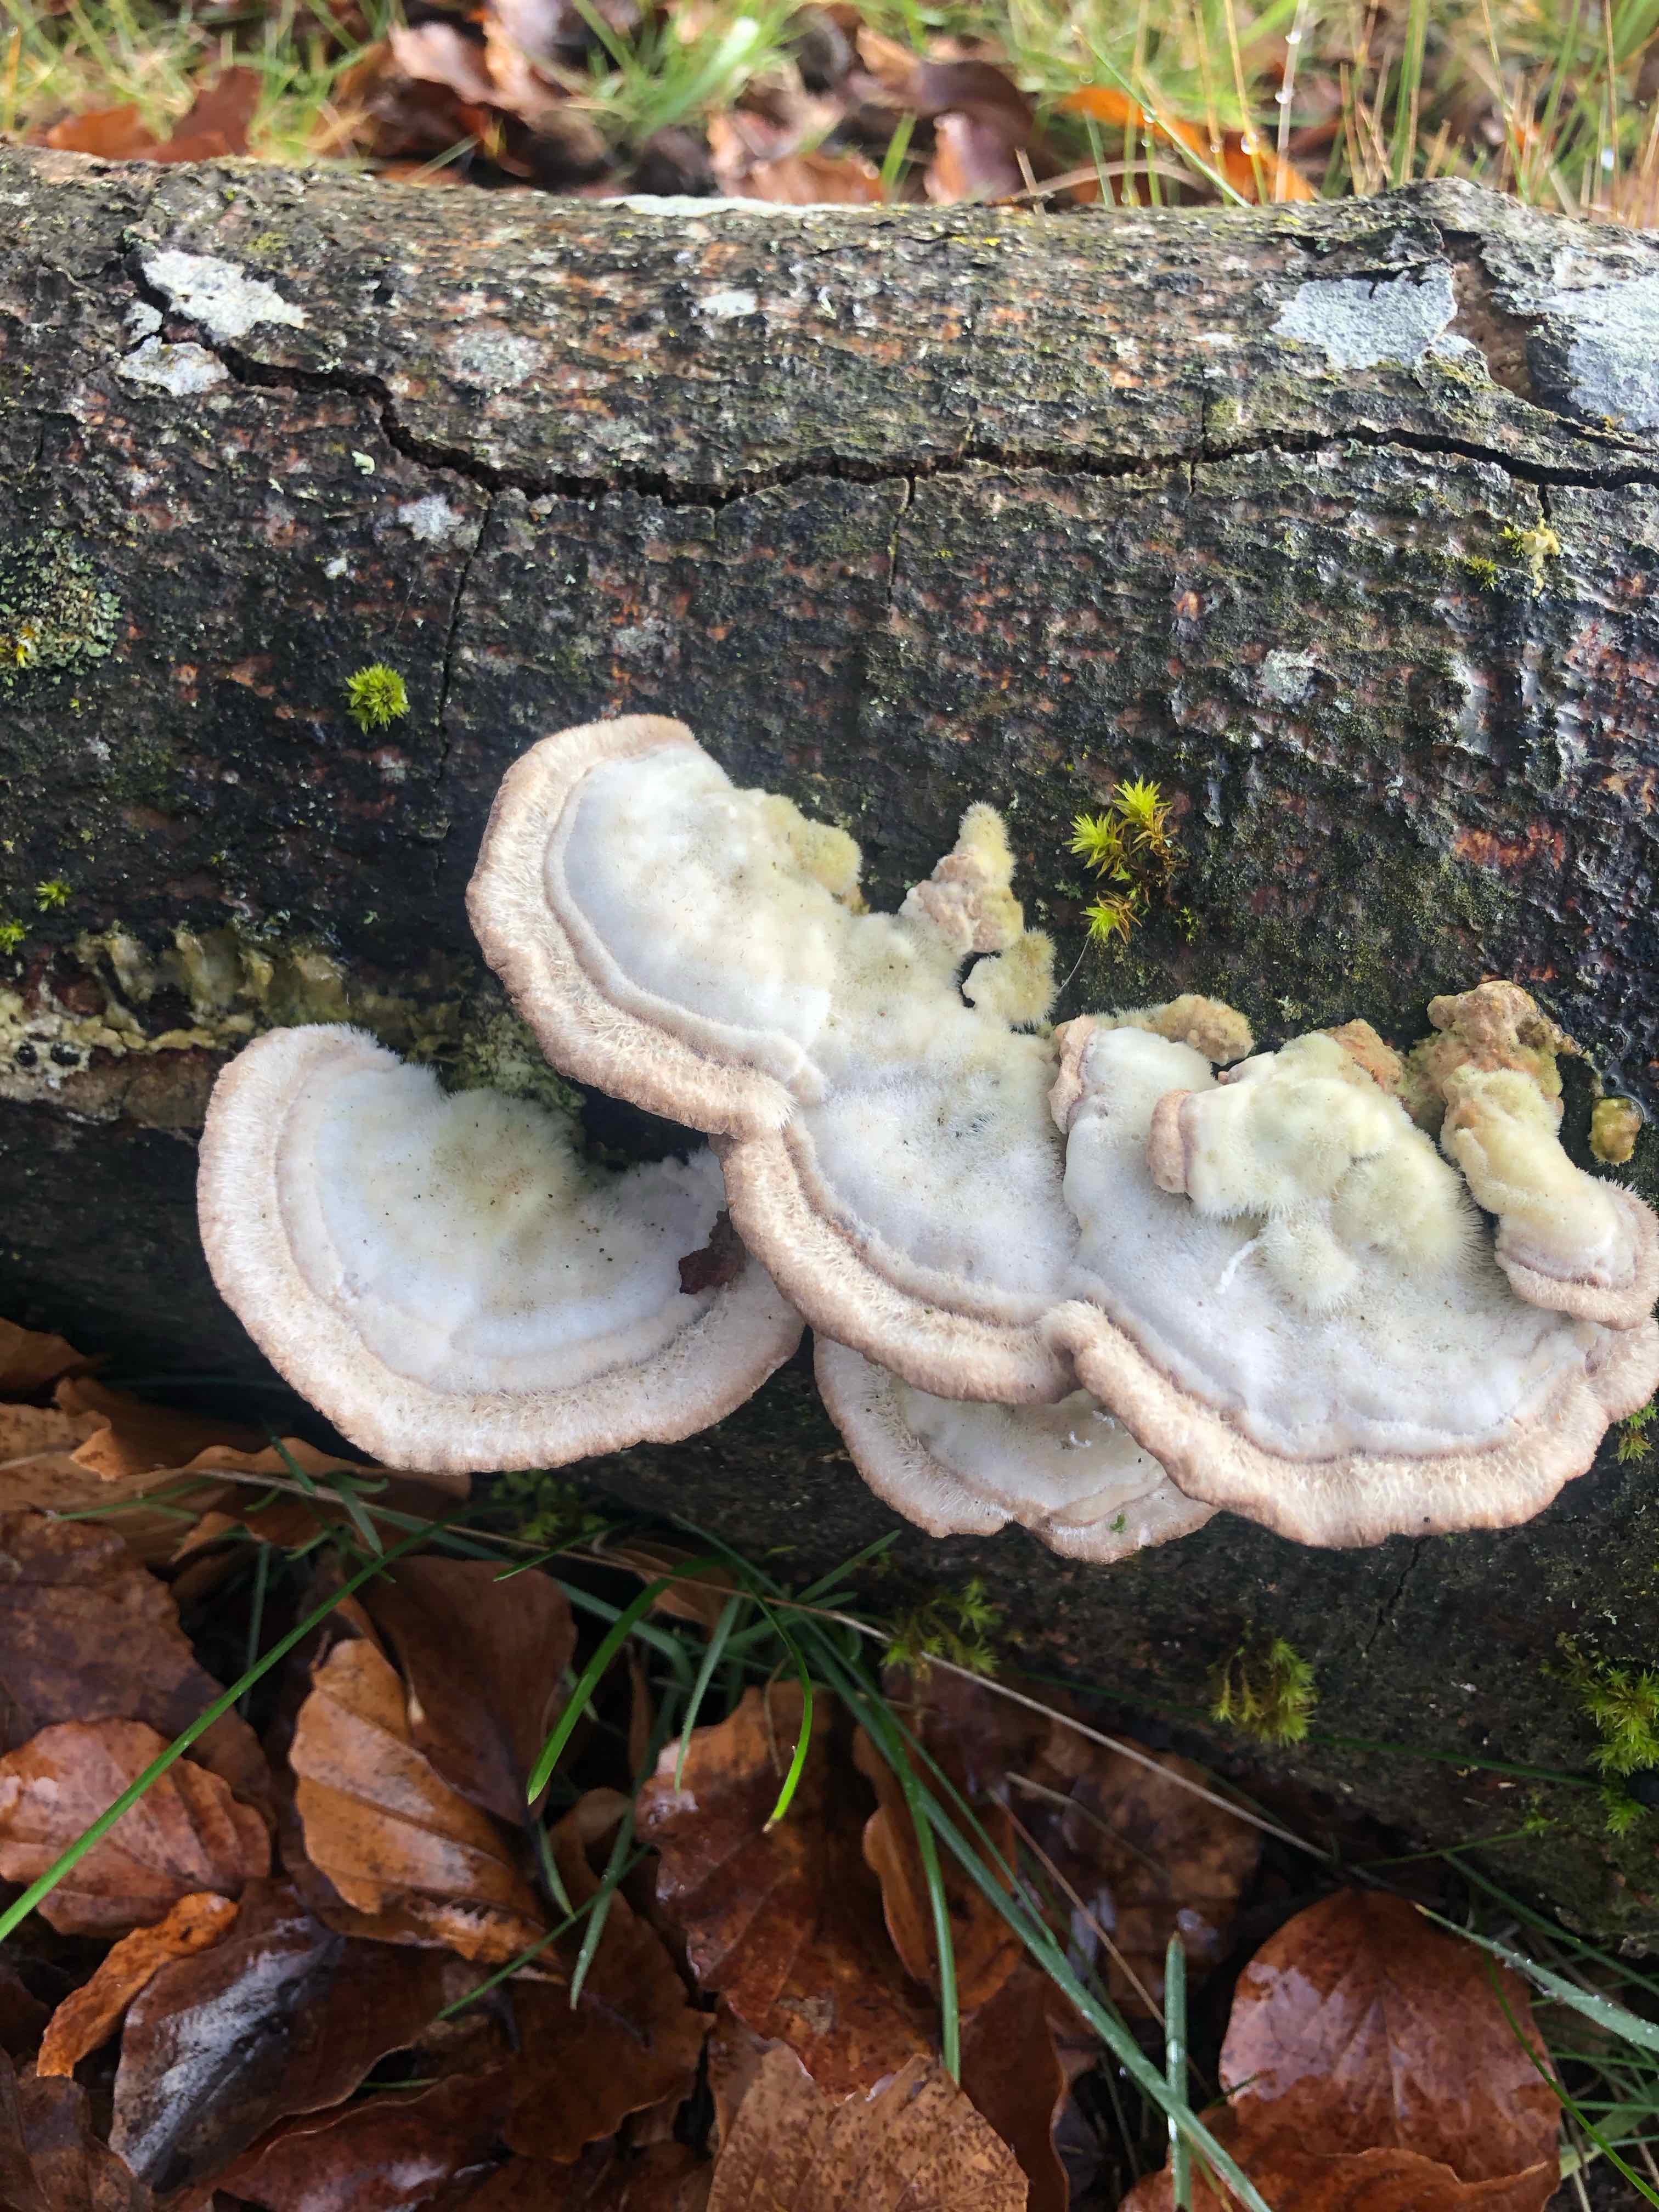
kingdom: Fungi
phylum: Basidiomycota
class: Agaricomycetes
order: Polyporales
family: Polyporaceae
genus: Trametes
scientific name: Trametes hirsuta
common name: håret læderporesvamp
